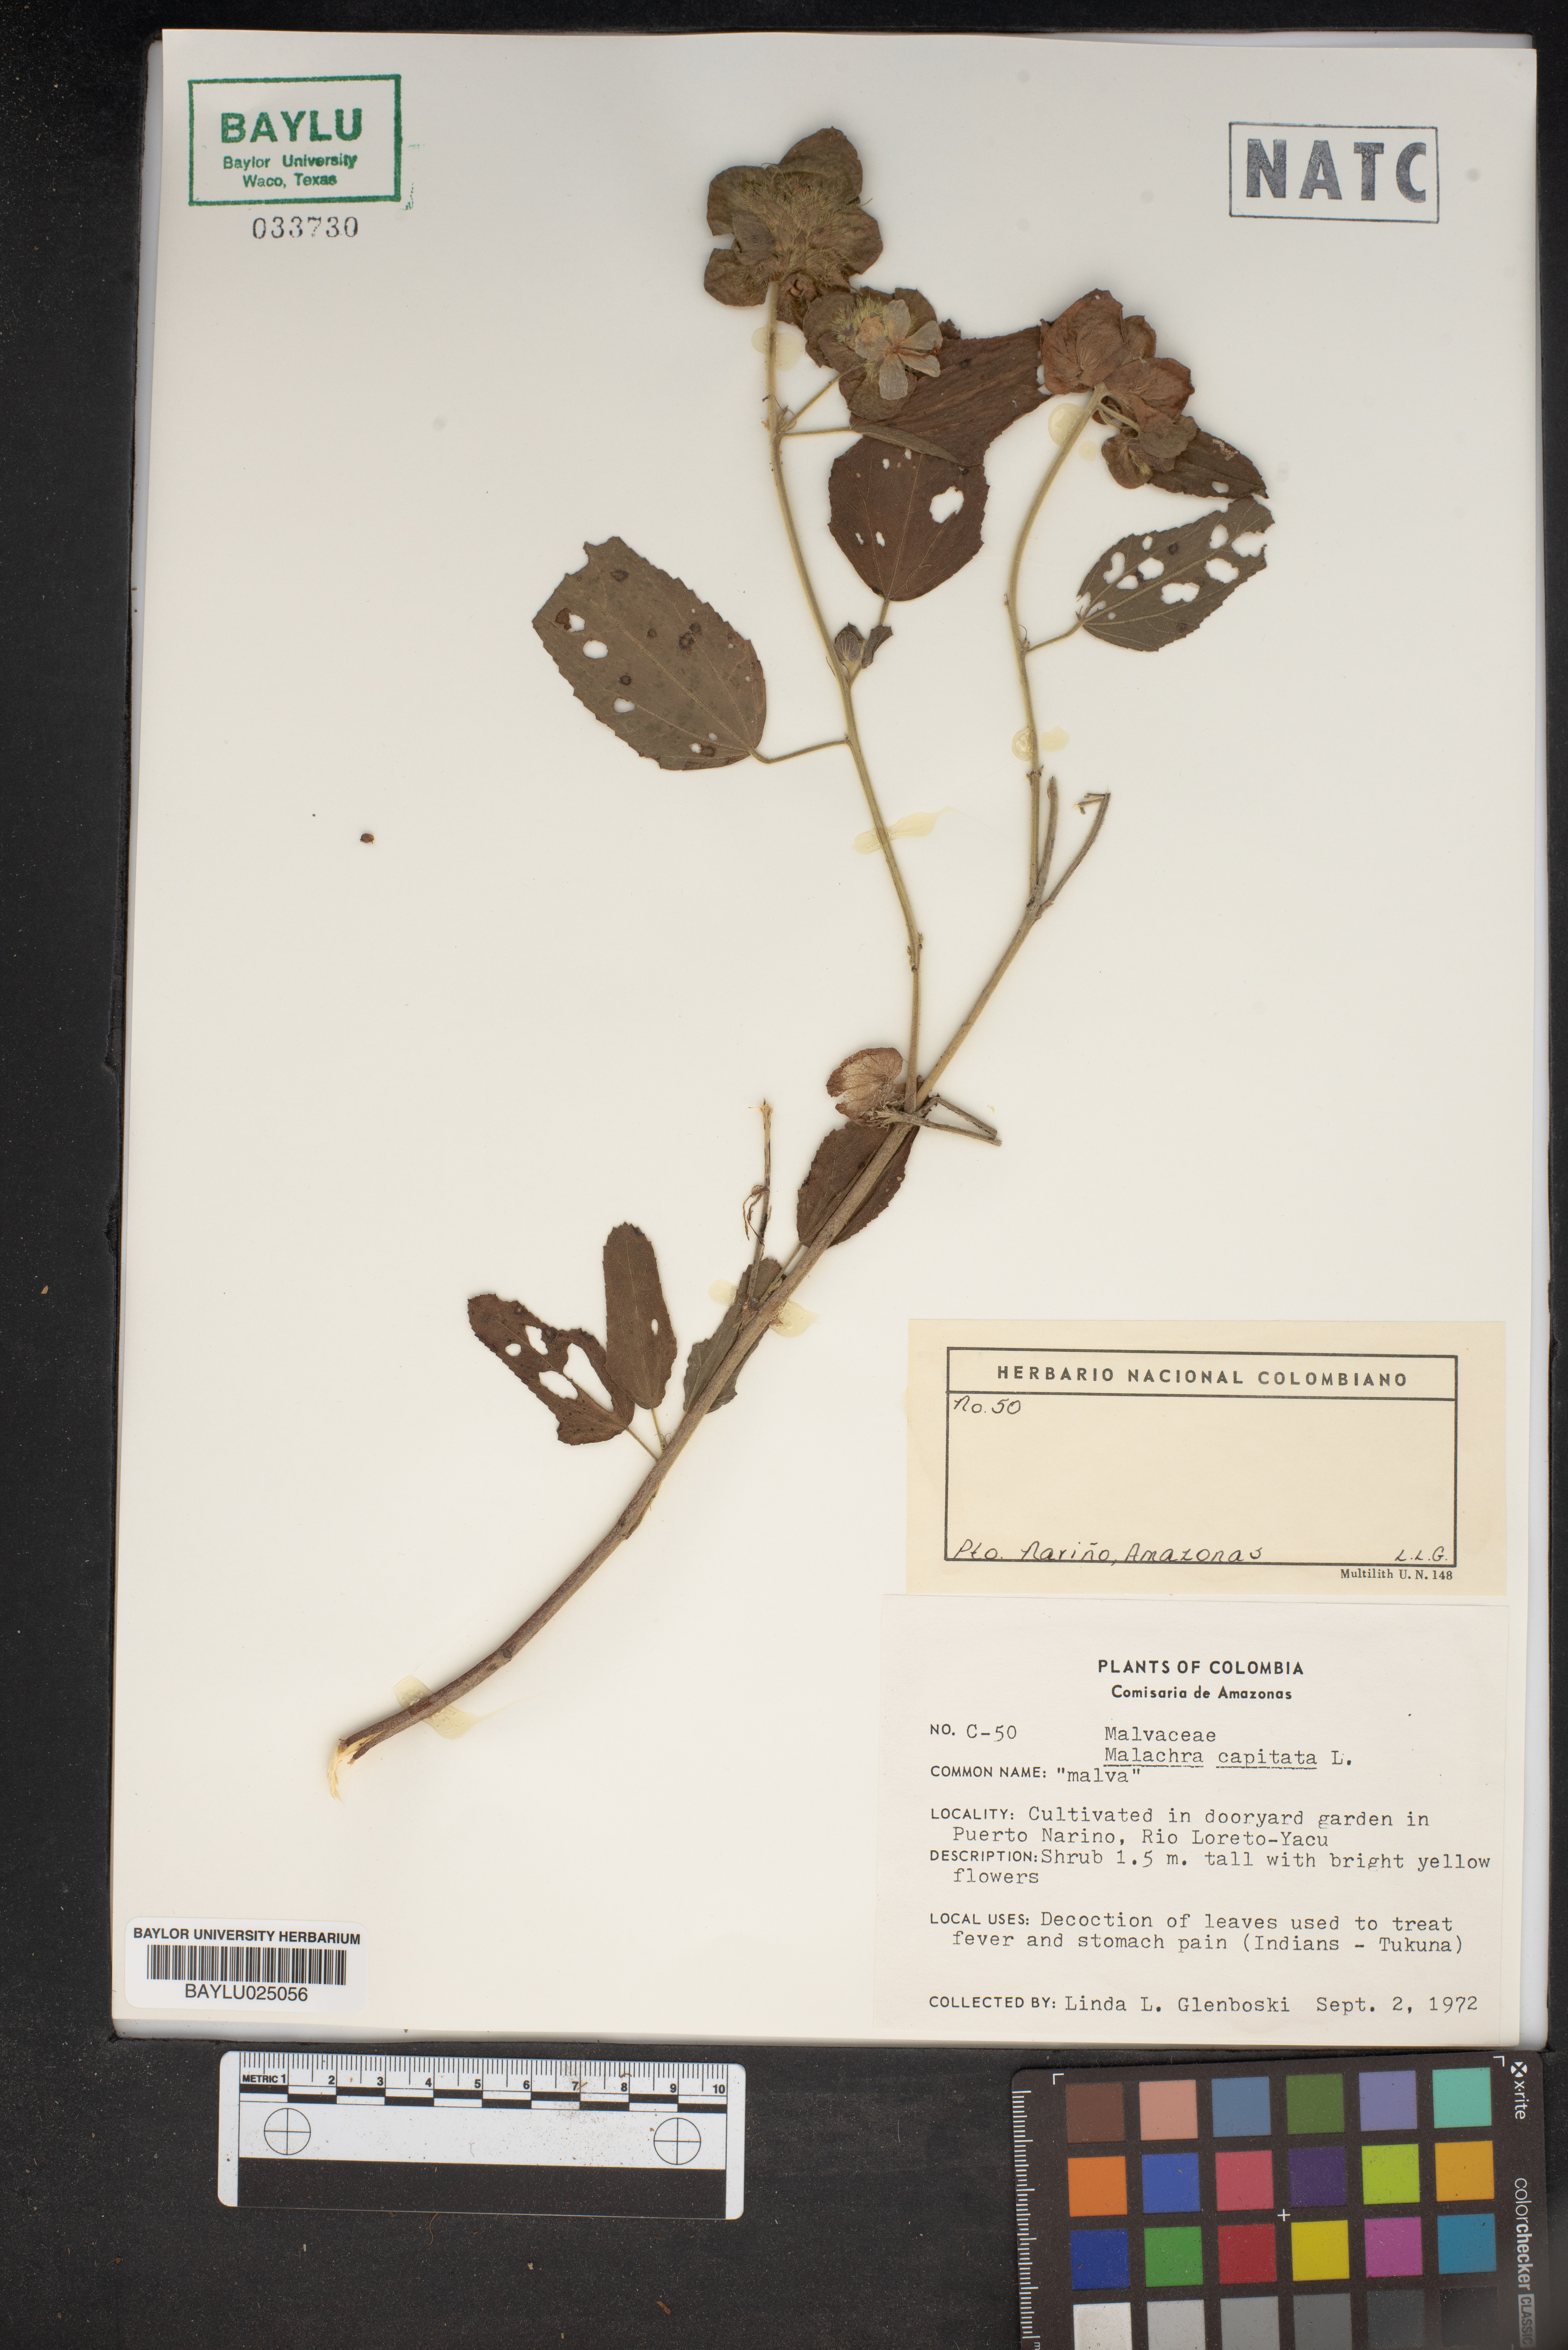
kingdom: Plantae
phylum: Tracheophyta
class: Magnoliopsida
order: Malvales
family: Malvaceae
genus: Malachra
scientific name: Malachra capitata
